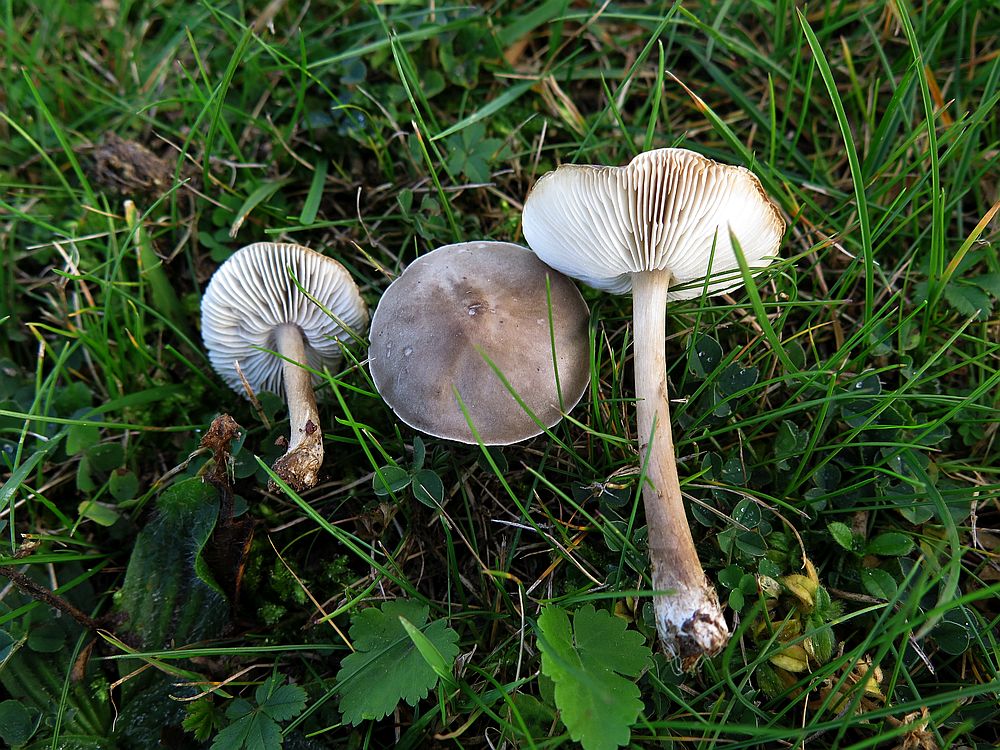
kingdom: Fungi
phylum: Basidiomycota
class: Agaricomycetes
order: Agaricales
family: Tricholomataceae
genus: Melanoleuca
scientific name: Melanoleuca polioleuca
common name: hvidbladet munkehat
